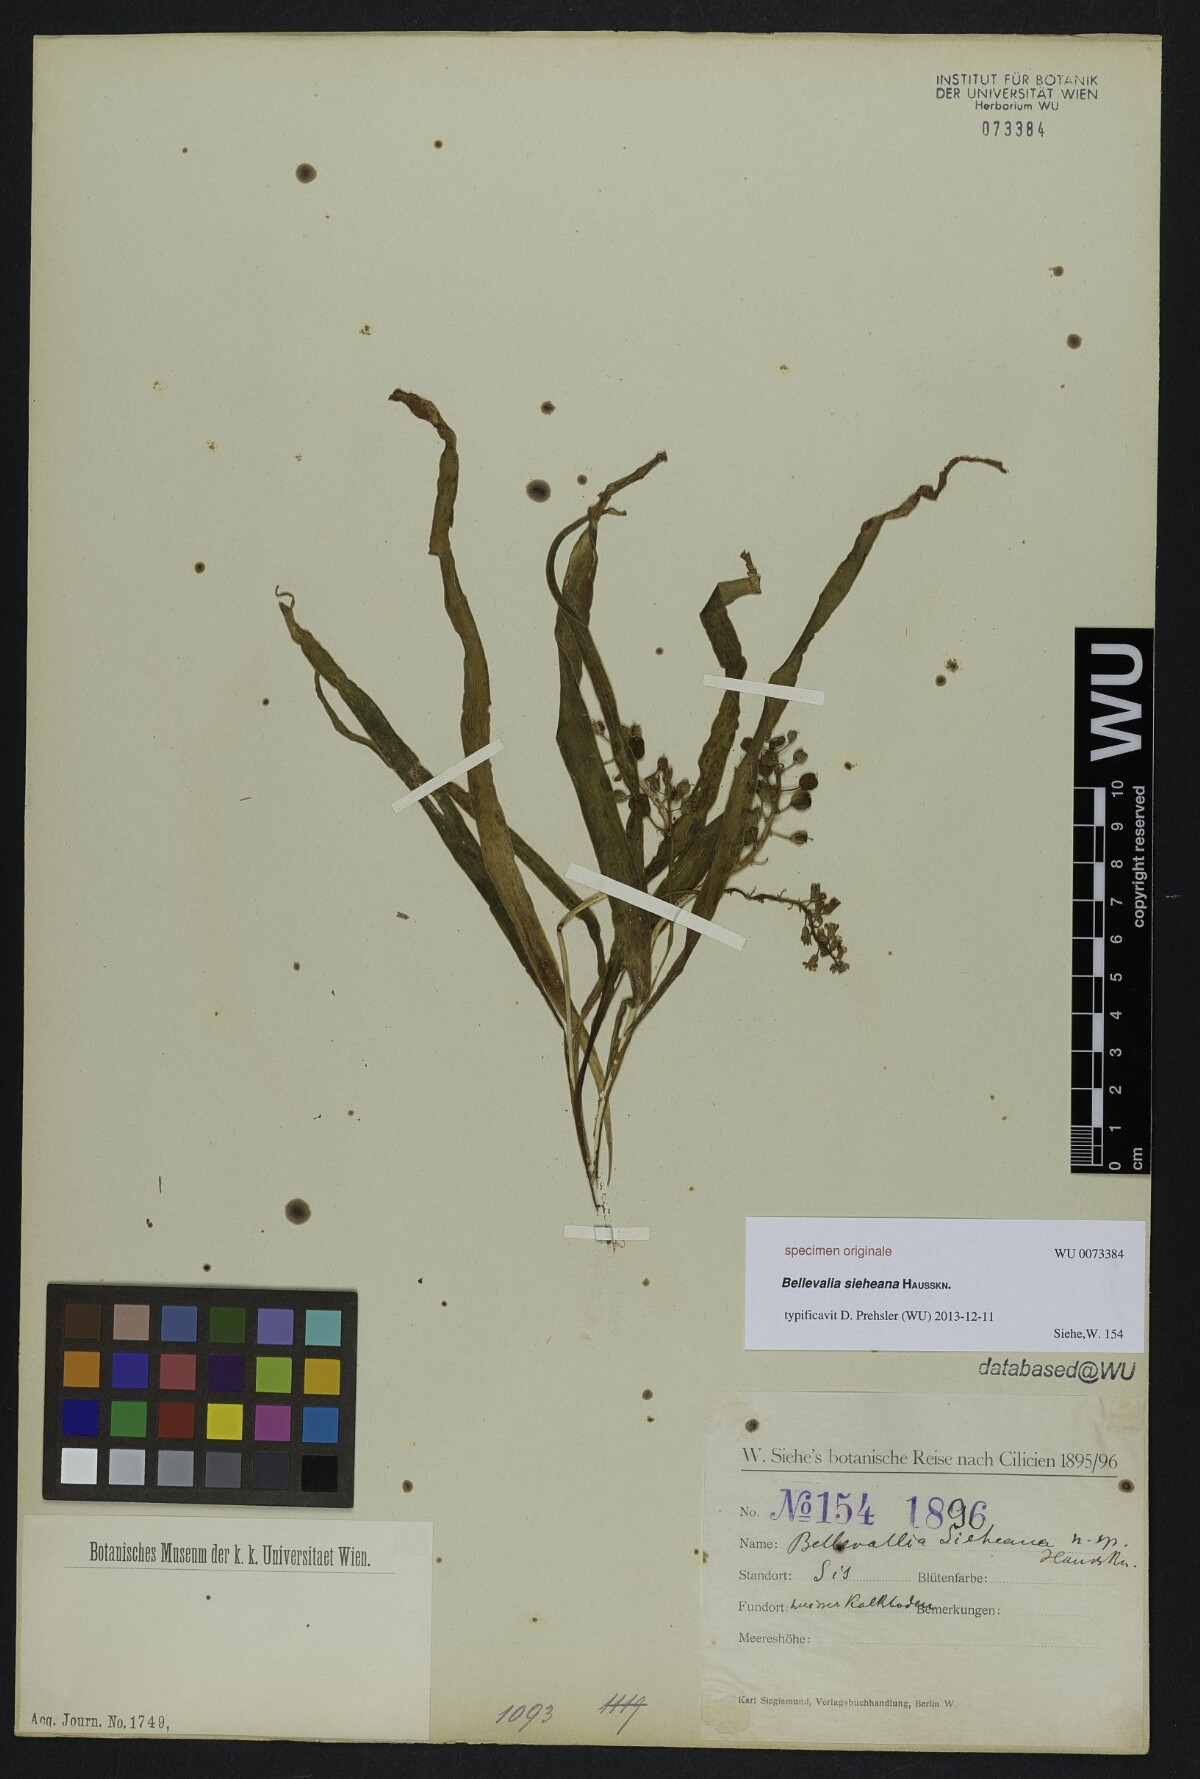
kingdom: Plantae
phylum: Tracheophyta
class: Liliopsida
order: Asparagales
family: Asparagaceae
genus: Bellevalia
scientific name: Bellevalia
